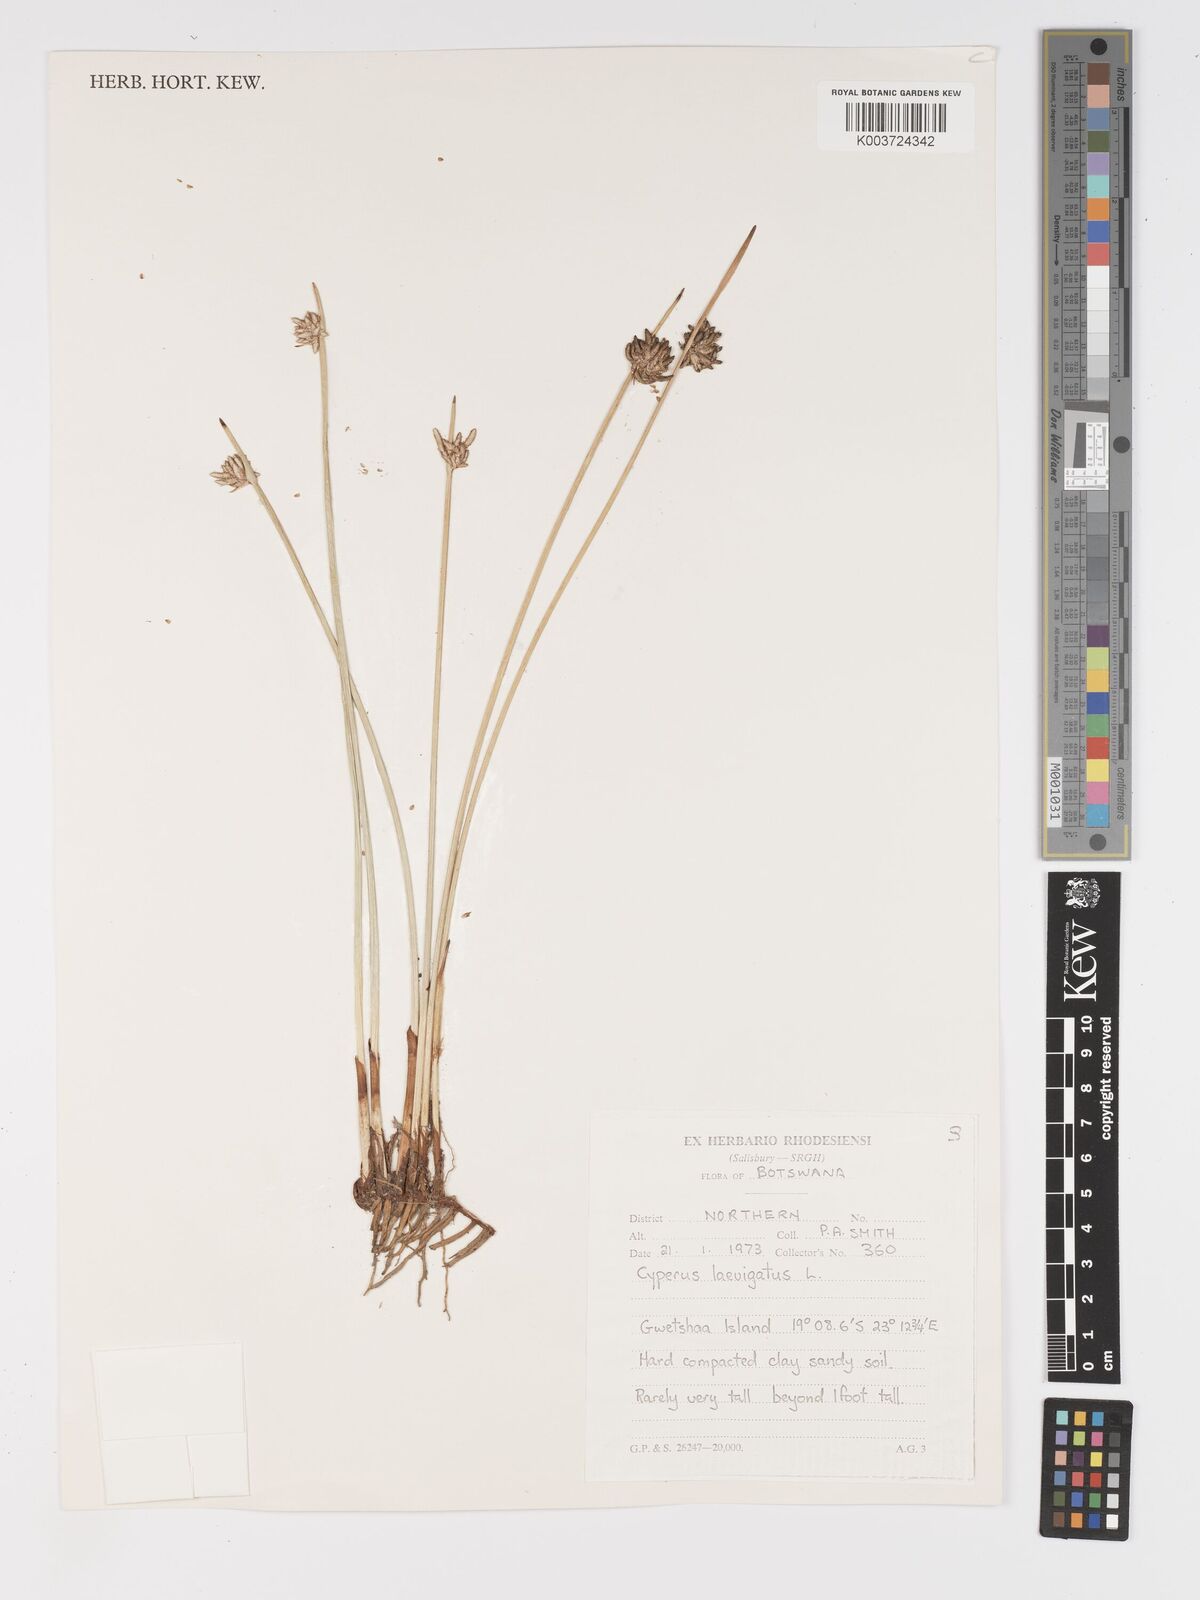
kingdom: Plantae
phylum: Tracheophyta
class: Liliopsida
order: Poales
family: Cyperaceae
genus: Cyperus
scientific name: Cyperus laevigatus
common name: Smooth flat sedge
